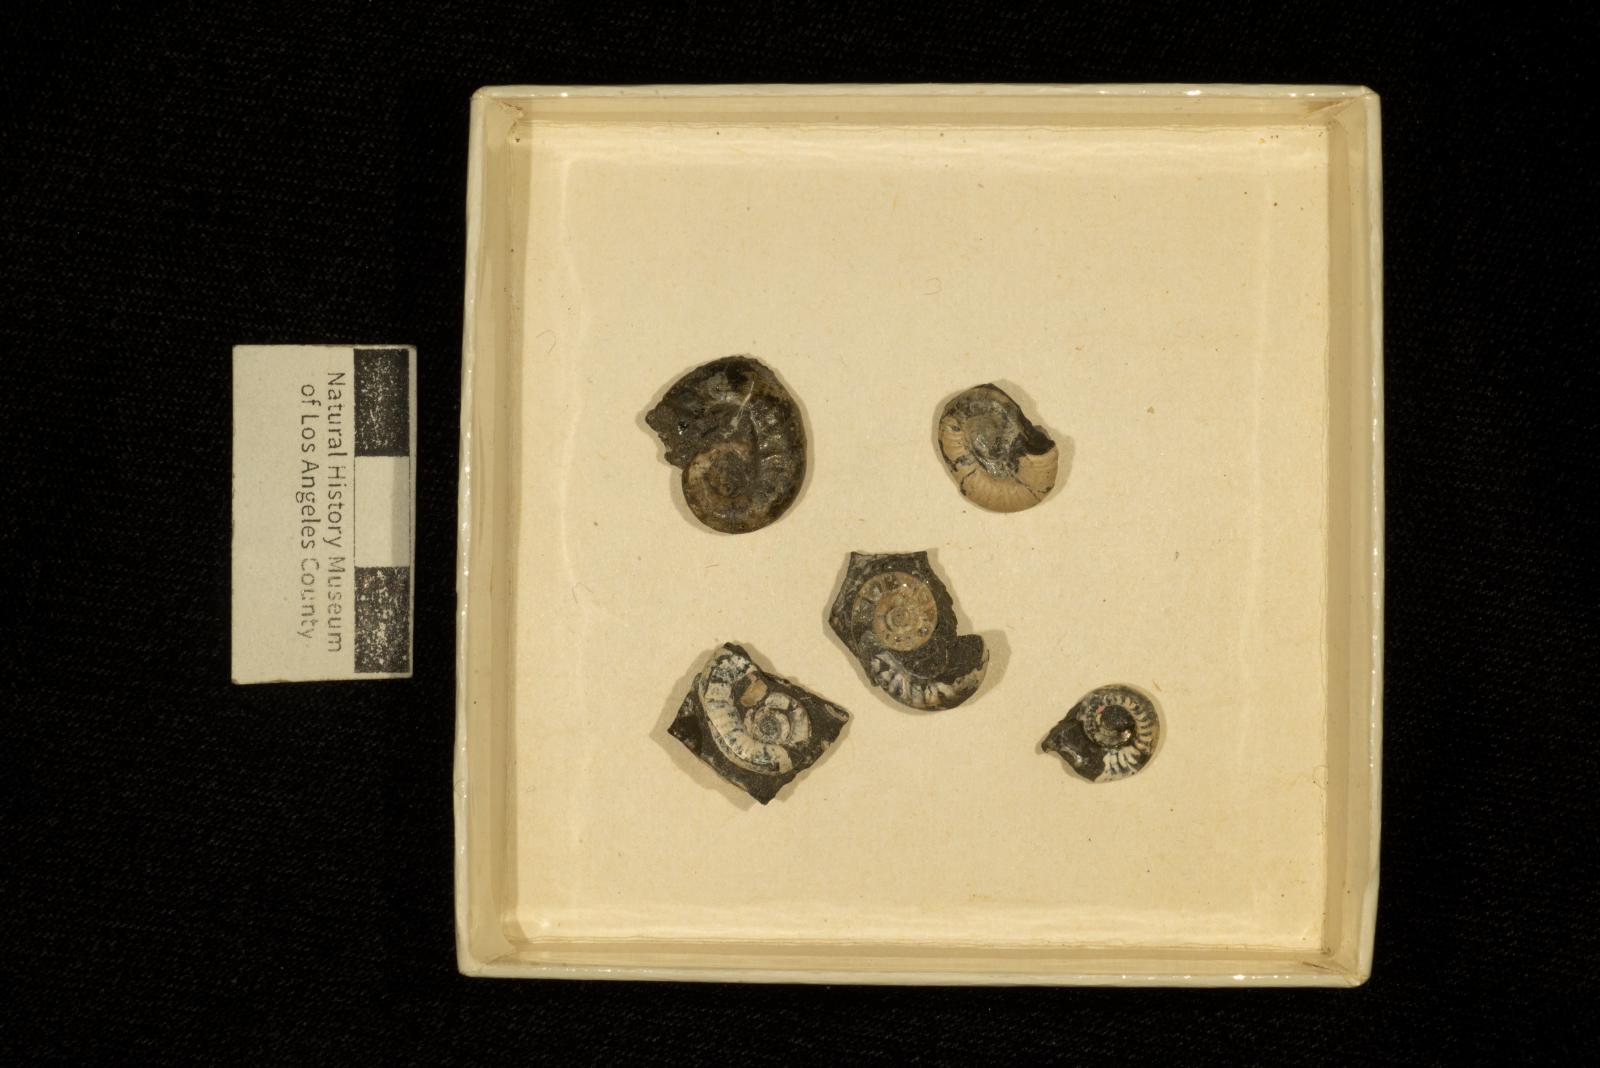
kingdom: Animalia
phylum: Mollusca
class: Cephalopoda
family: Scaphitidae
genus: Yezoites
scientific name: Yezoites puerculus
